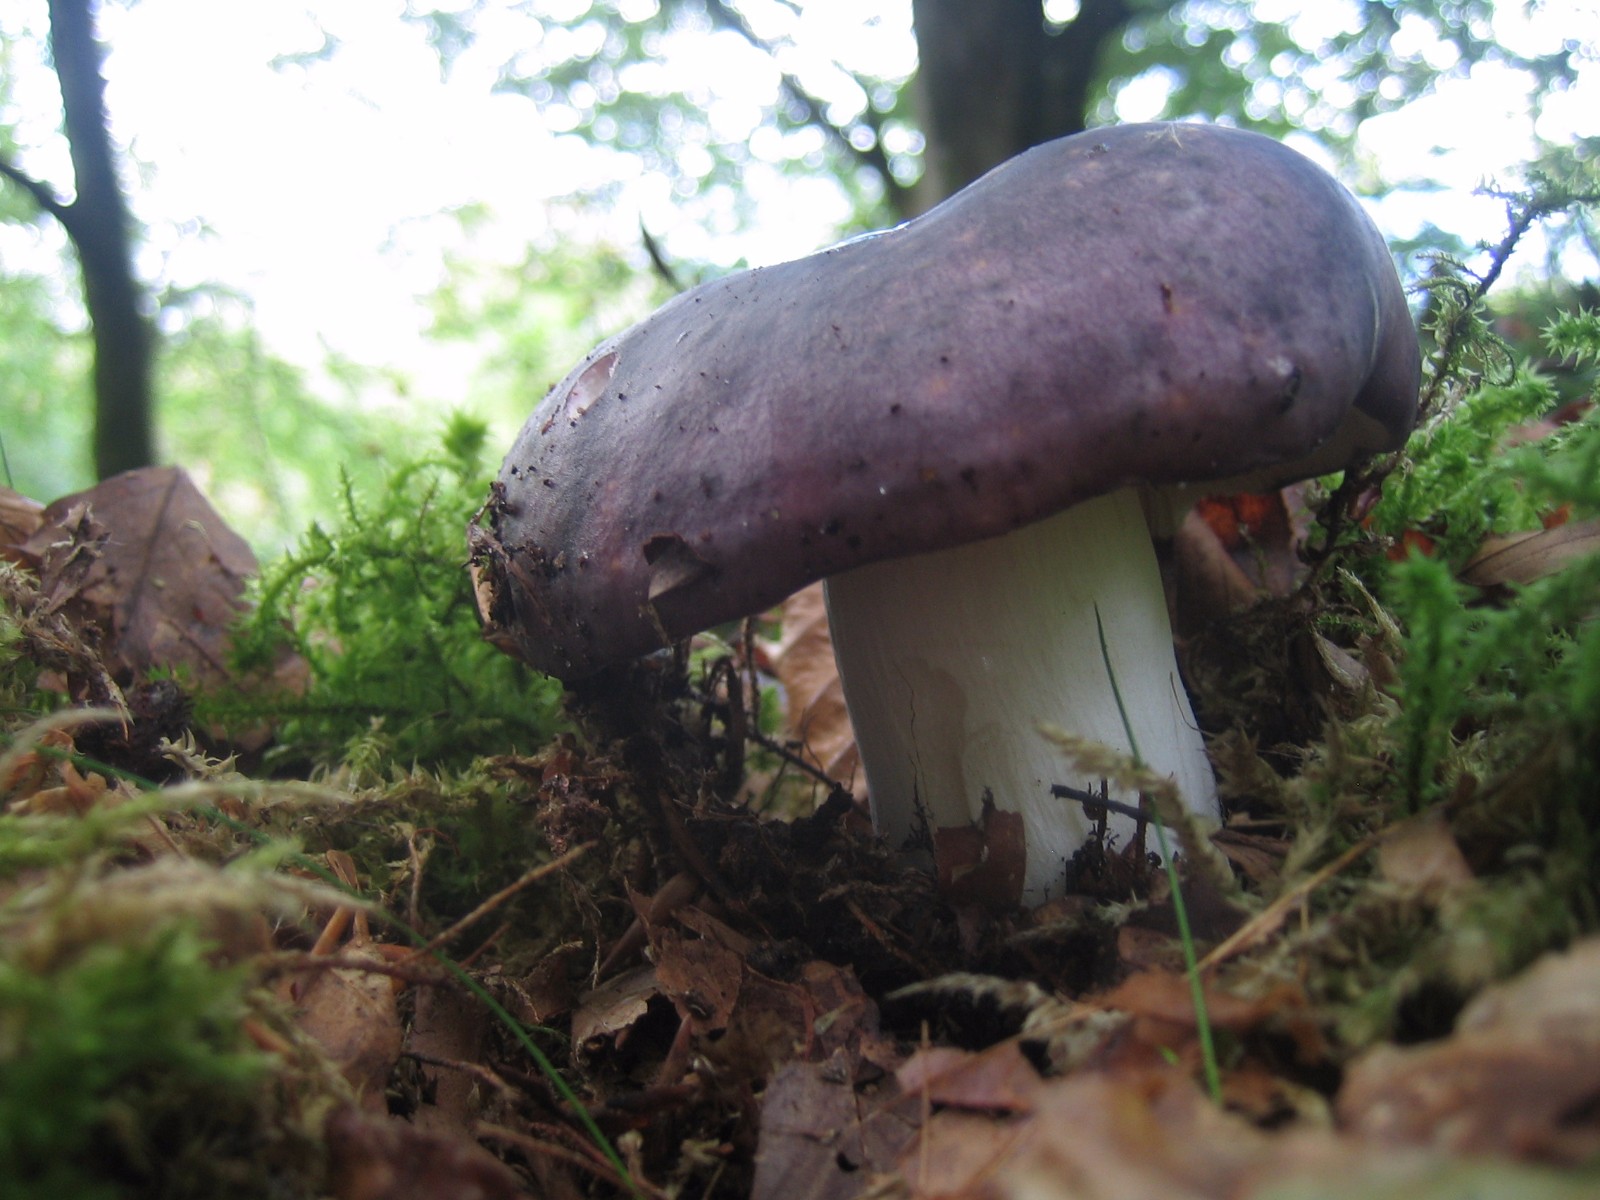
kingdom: Fungi
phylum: Basidiomycota
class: Agaricomycetes
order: Russulales
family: Russulaceae
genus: Russula
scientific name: Russula cyanoxantha
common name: broget skørhat
